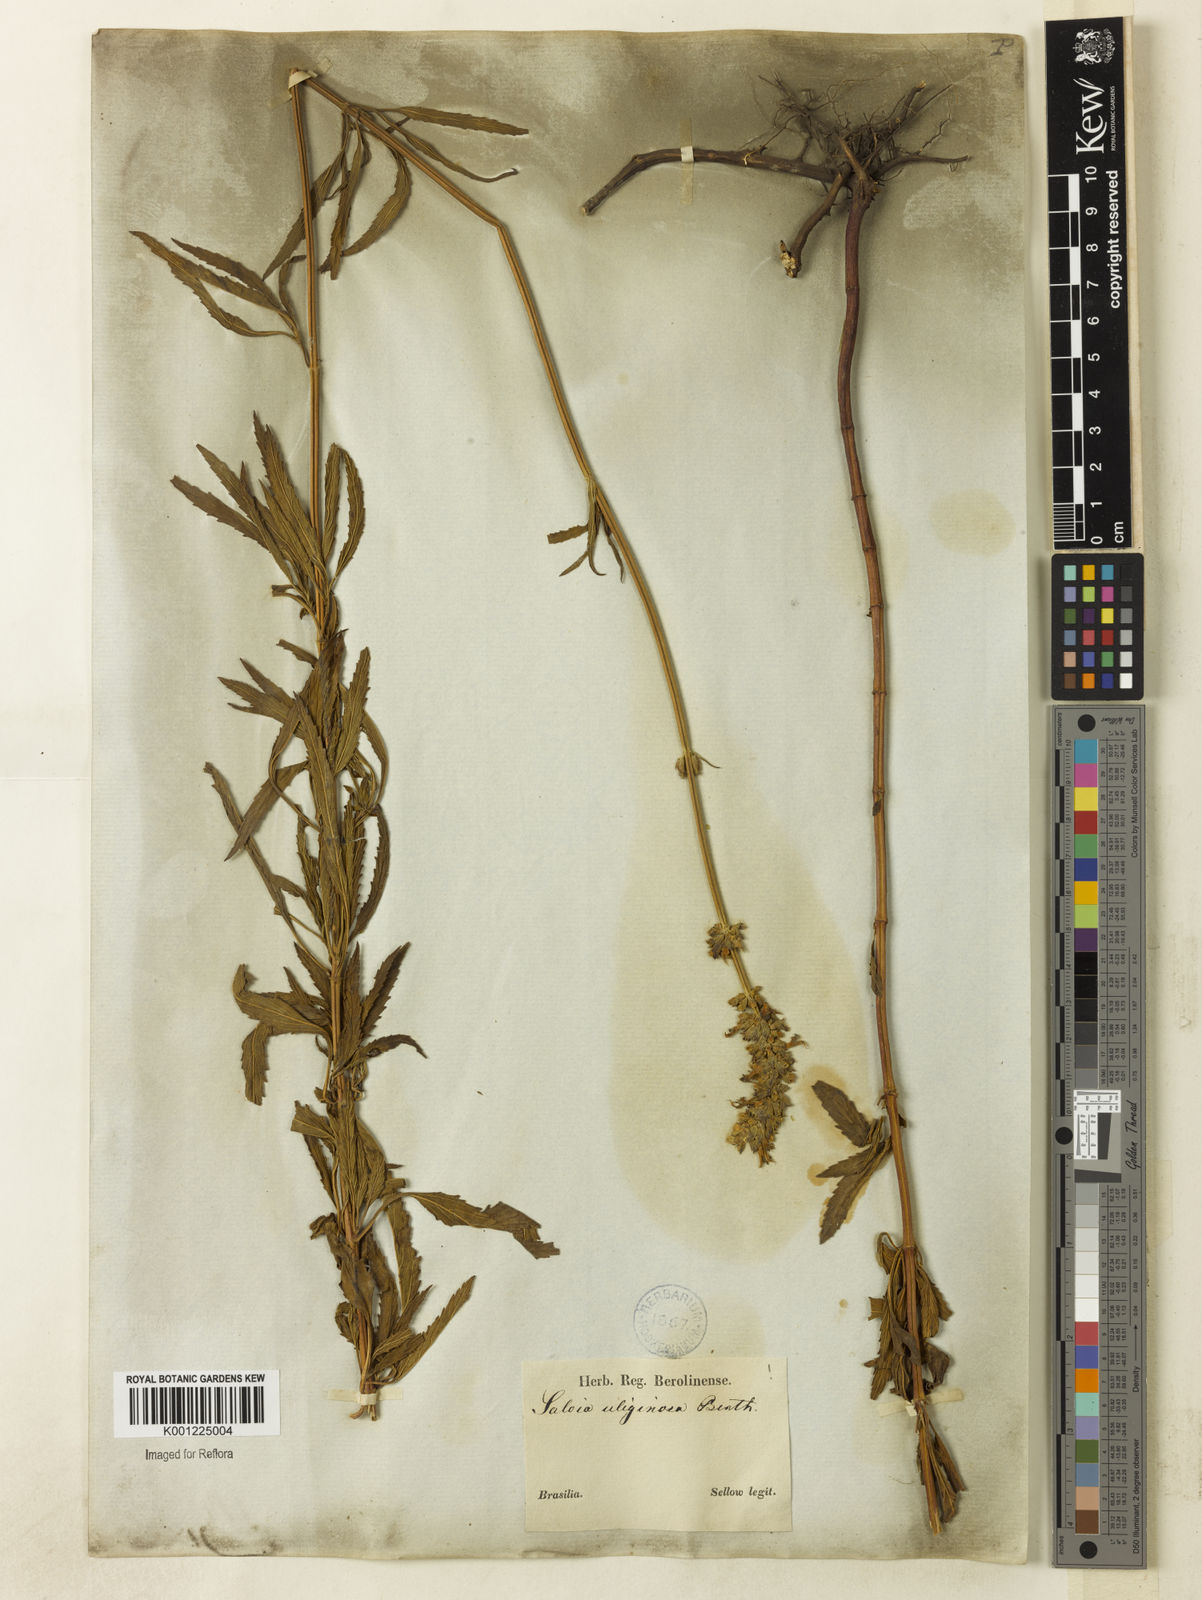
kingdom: Plantae
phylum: Tracheophyta
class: Magnoliopsida
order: Lamiales
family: Lamiaceae
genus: Salvia
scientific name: Salvia uliginosa
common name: Bog sage
